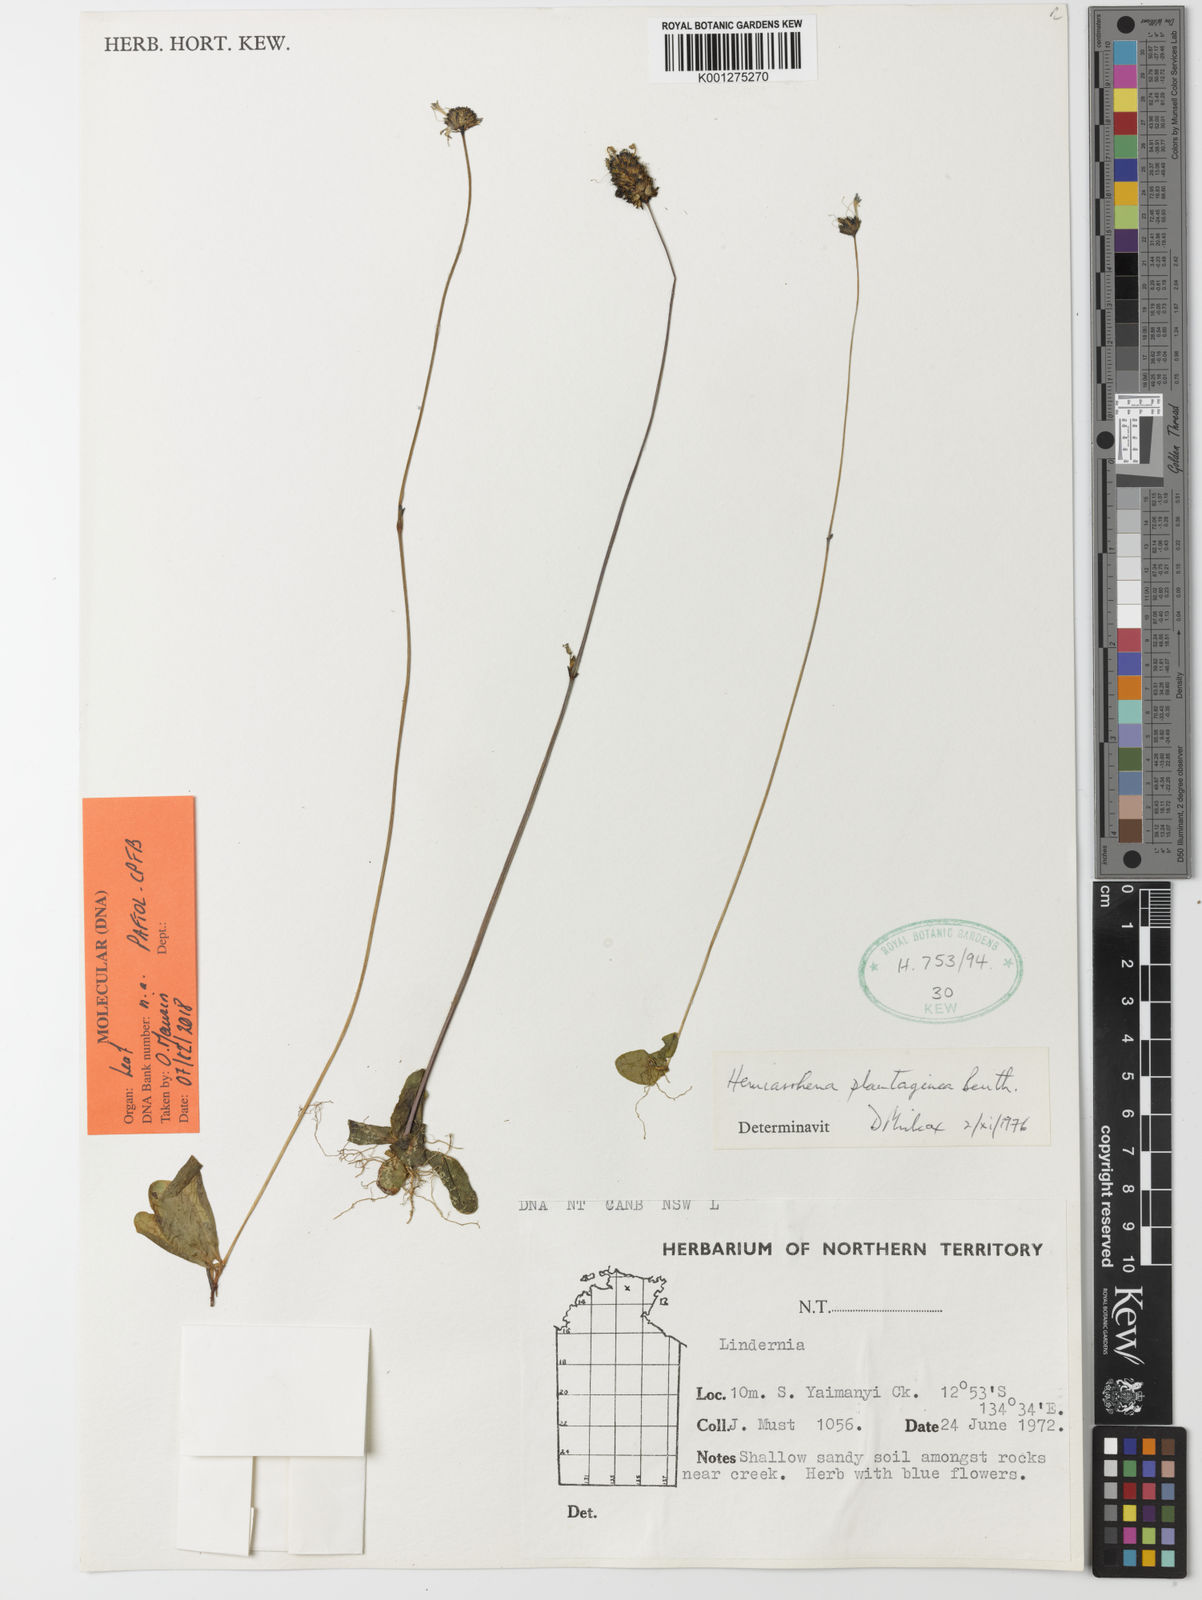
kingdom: Plantae
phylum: Tracheophyta
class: Magnoliopsida
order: Lamiales
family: Linderniaceae
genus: Hemiarrhena
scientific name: Hemiarrhena plantaginea
